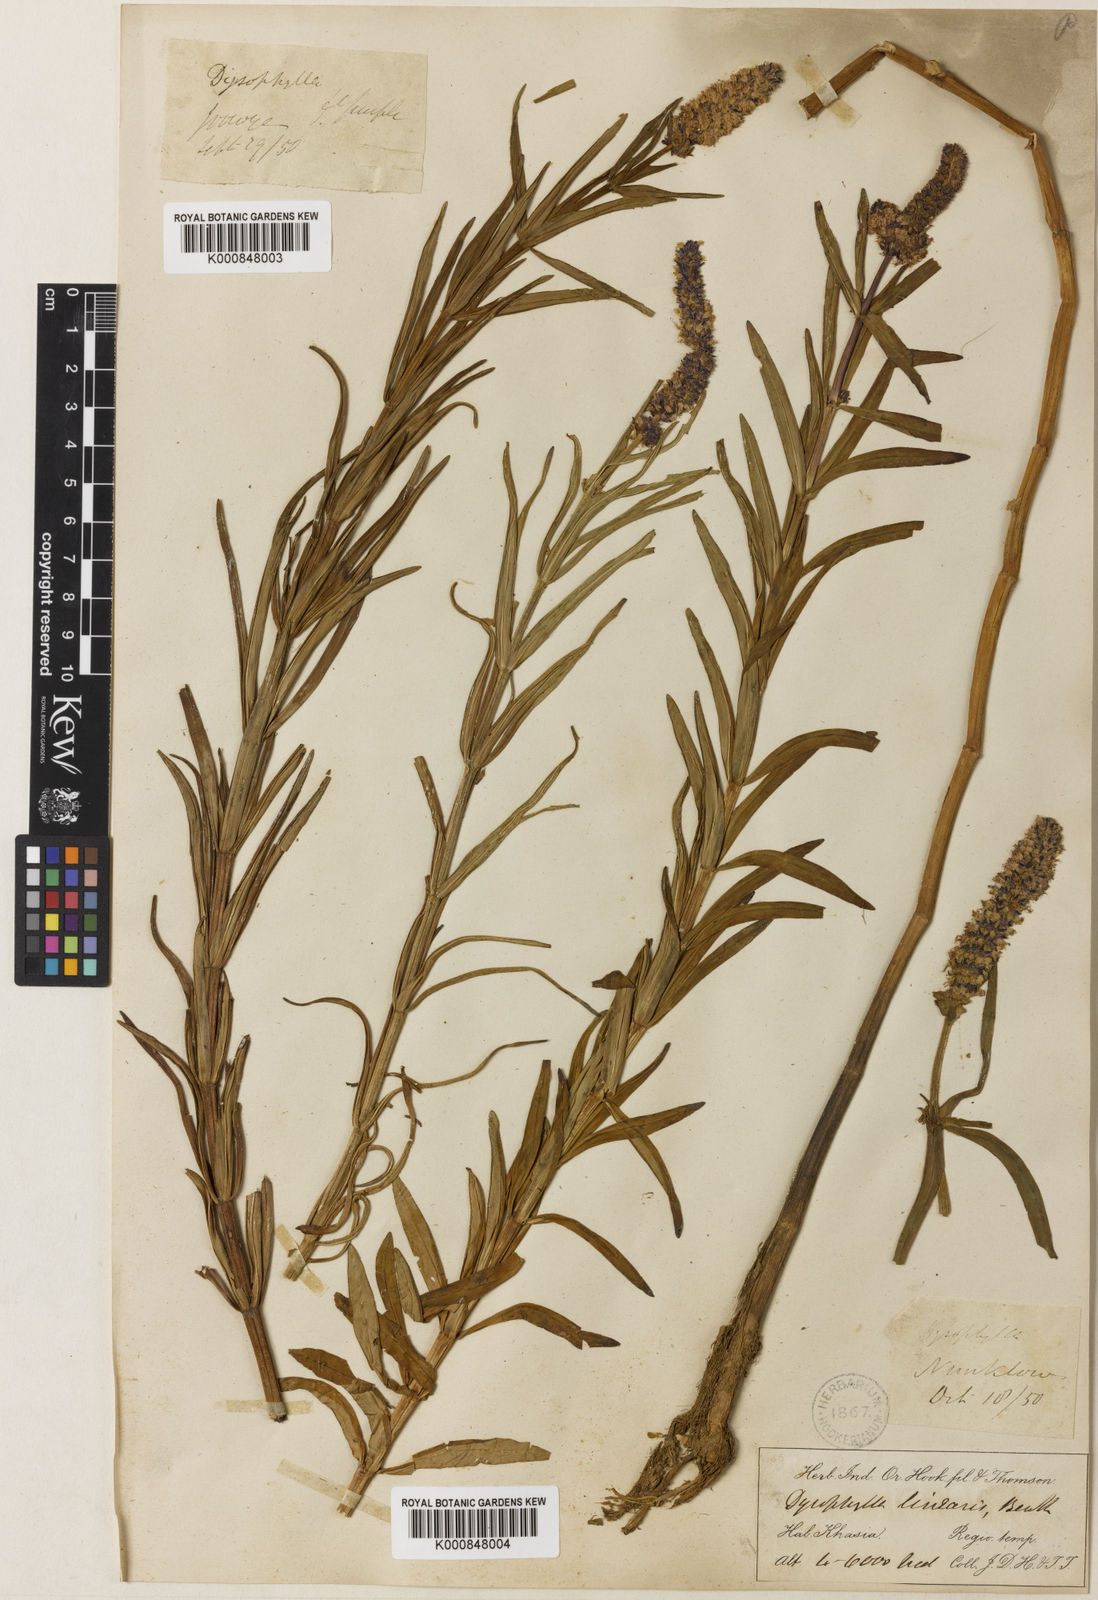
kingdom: Plantae
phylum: Tracheophyta
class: Magnoliopsida
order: Lamiales
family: Lamiaceae
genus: Pogostemon
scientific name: Pogostemon linearis
